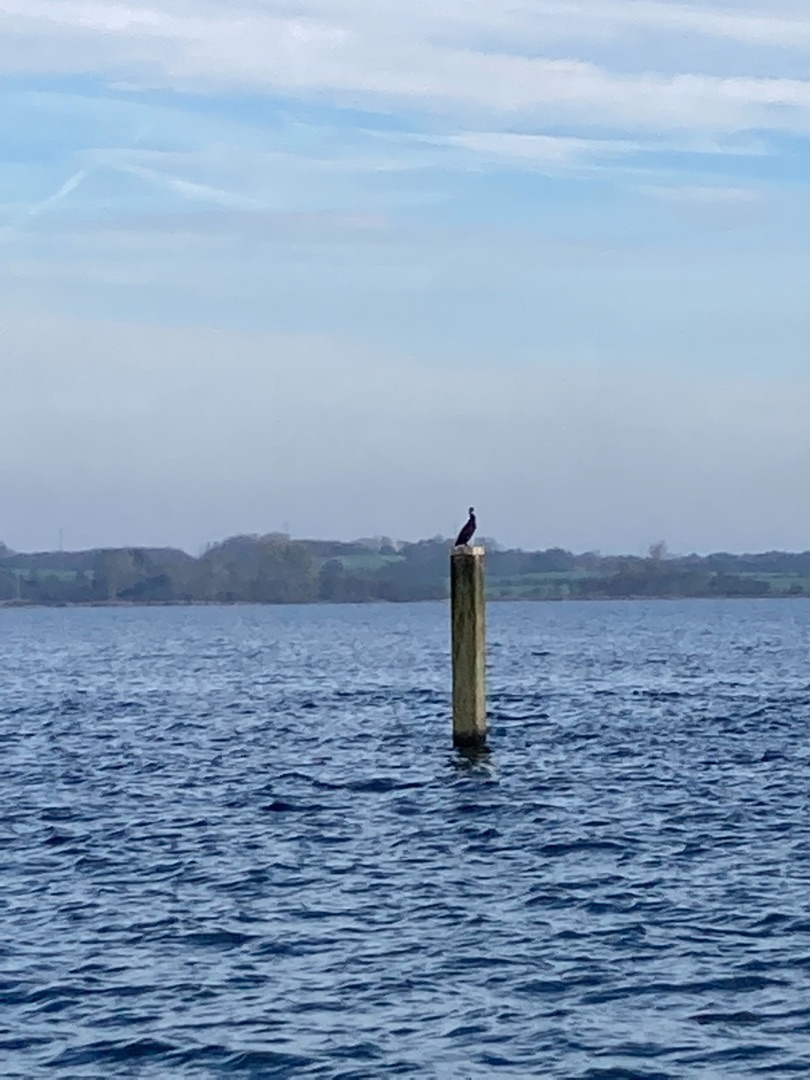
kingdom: Animalia
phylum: Chordata
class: Aves
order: Suliformes
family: Phalacrocoracidae
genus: Phalacrocorax
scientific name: Phalacrocorax carbo
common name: Skarv
